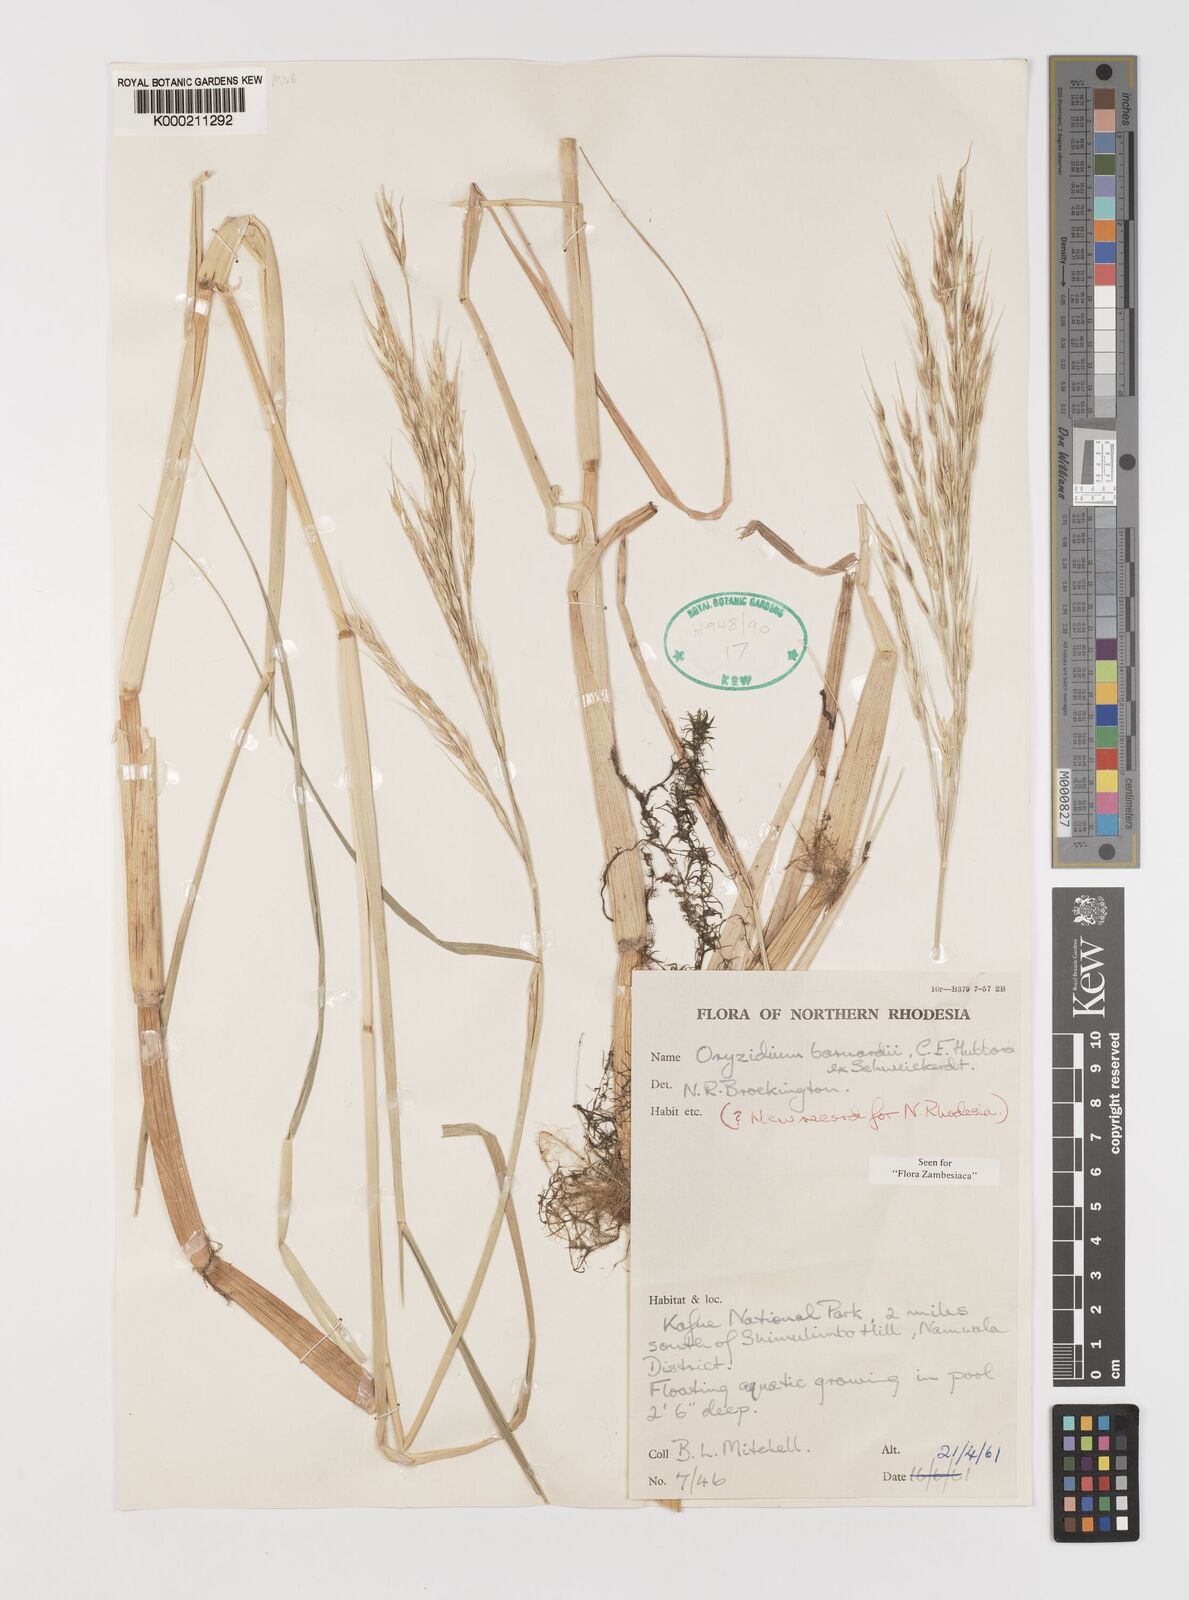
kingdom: Plantae
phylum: Tracheophyta
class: Liliopsida
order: Poales
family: Poaceae
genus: Oryzidium
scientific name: Oryzidium barnardii
